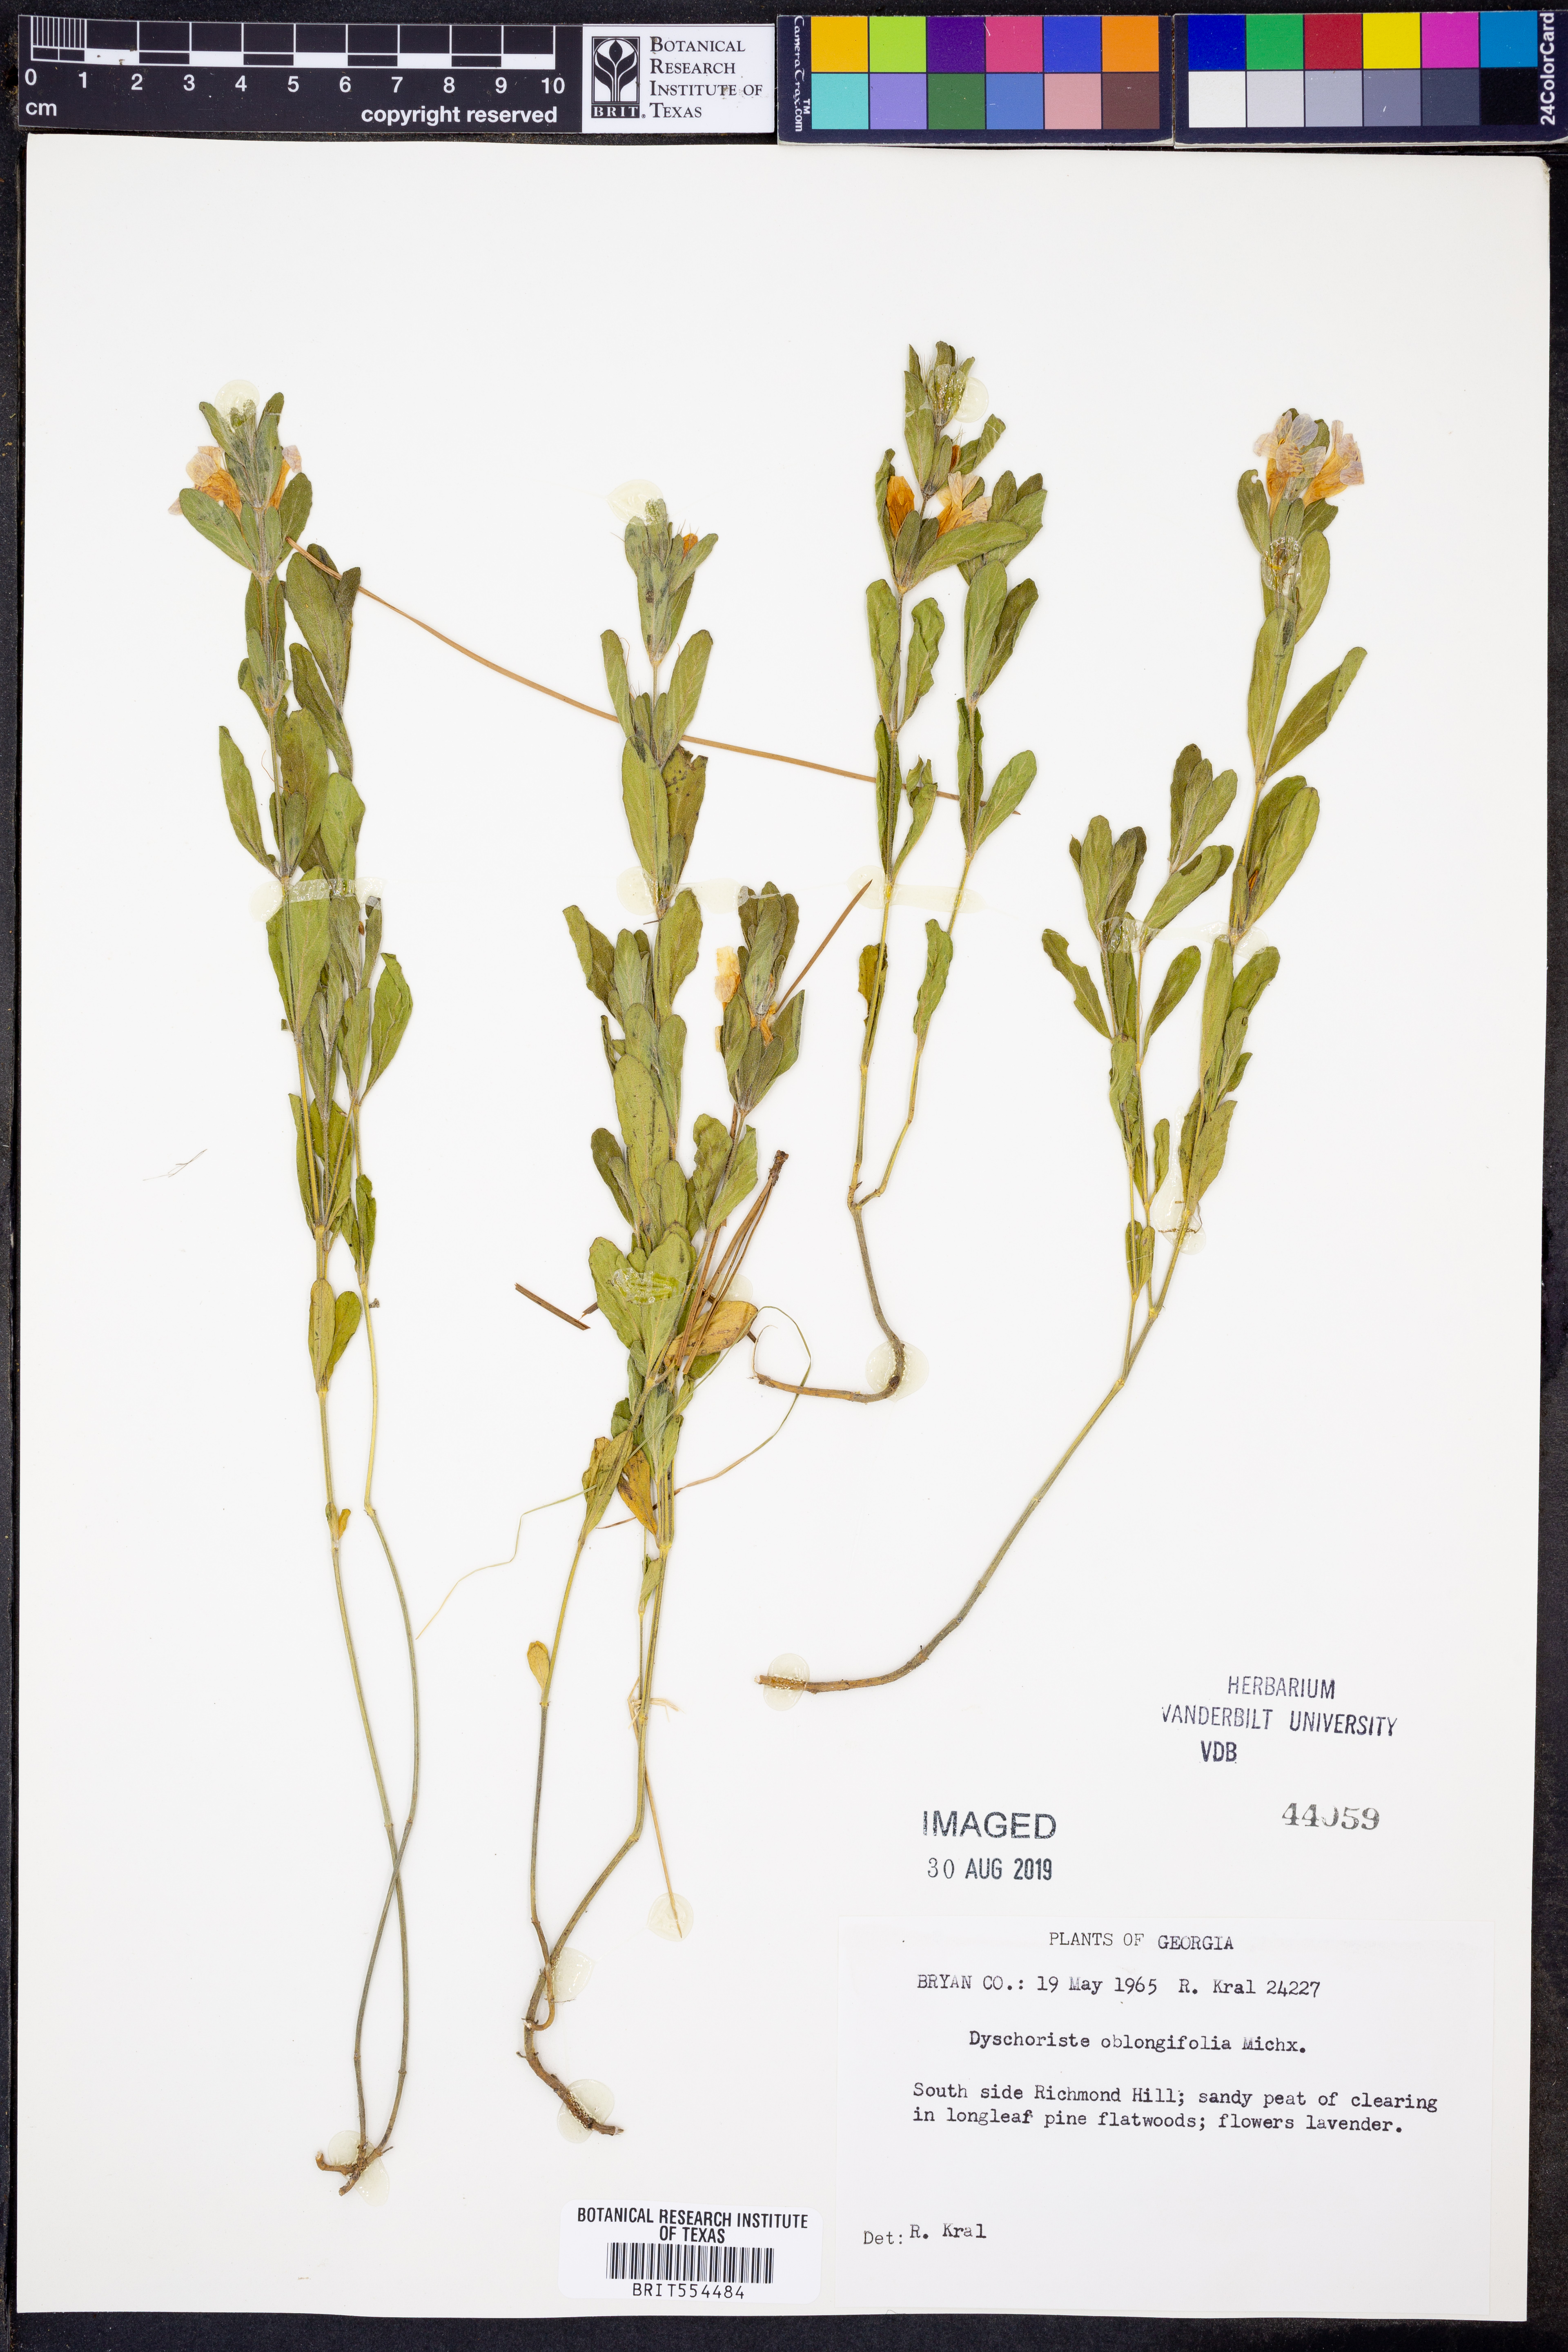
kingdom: Plantae
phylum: Tracheophyta
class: Magnoliopsida
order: Lamiales
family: Acanthaceae
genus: Dyschoriste
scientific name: Dyschoriste oblongifolia
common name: Blue twinflower
